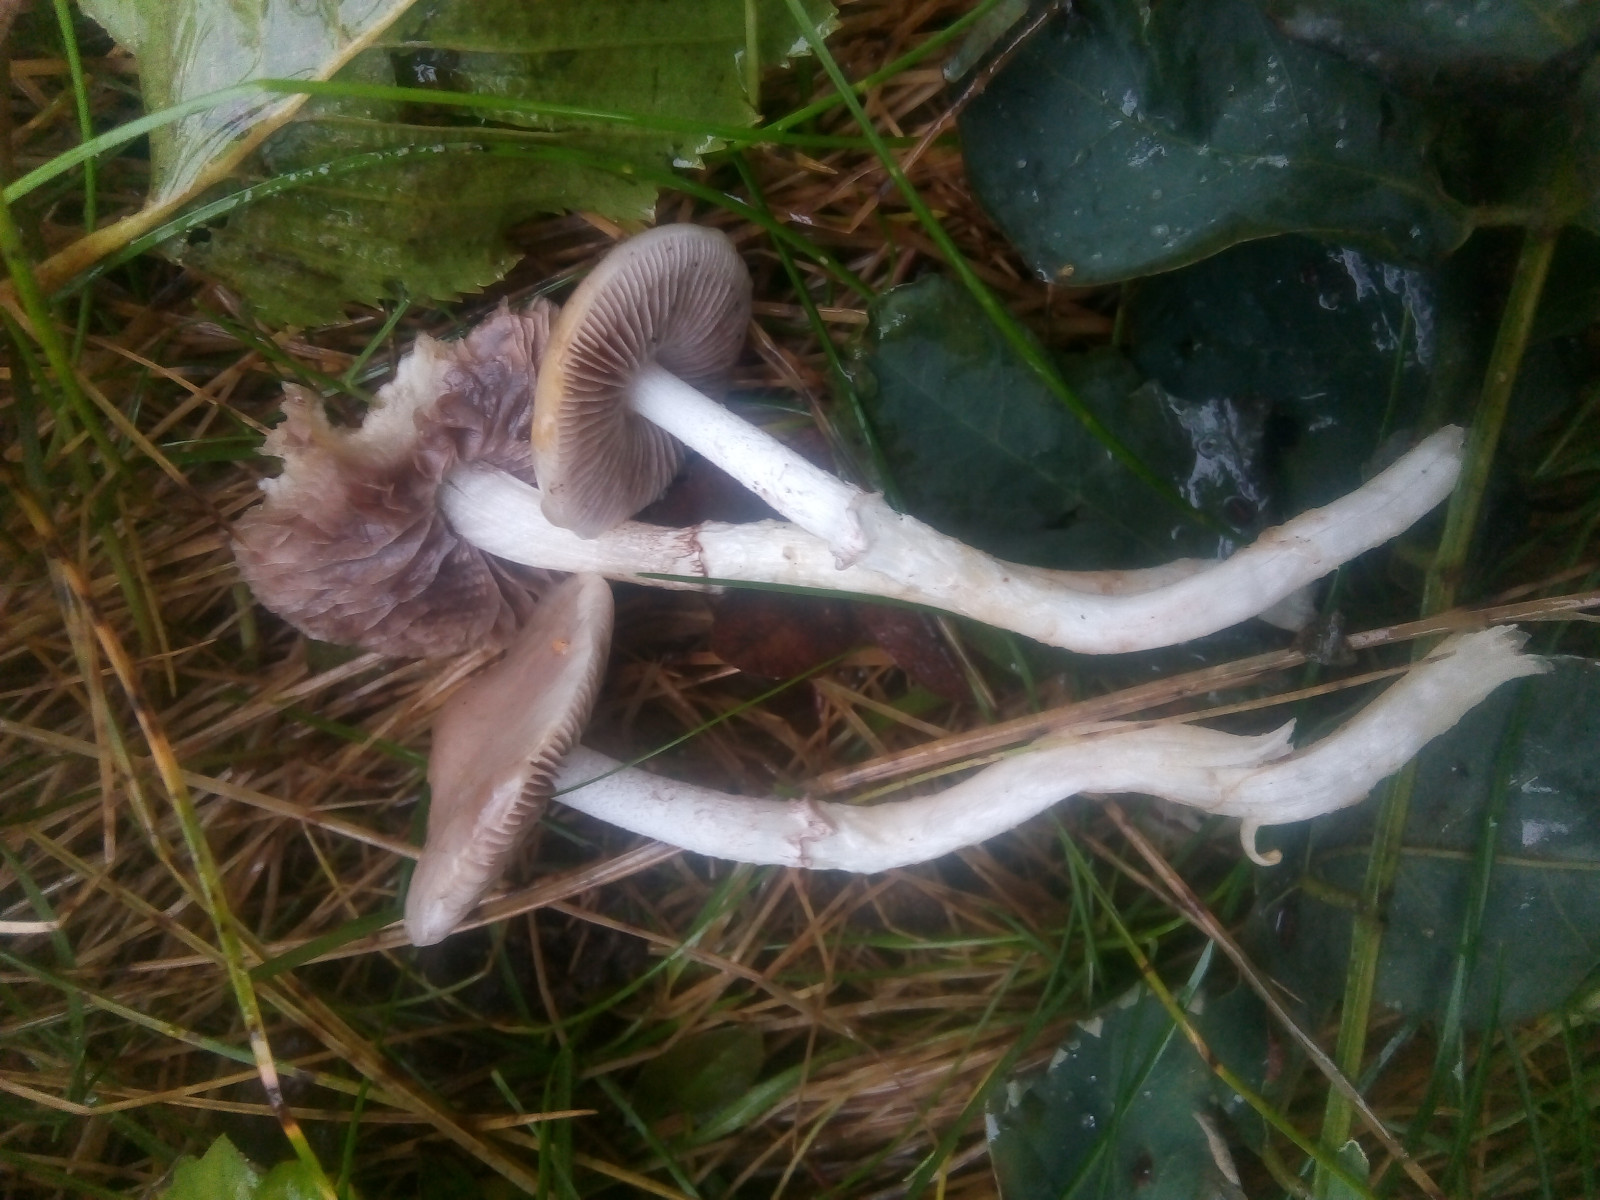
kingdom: Fungi
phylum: Basidiomycota
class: Agaricomycetes
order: Agaricales
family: Strophariaceae
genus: Stropharia
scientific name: Stropharia inuncta
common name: lillabrun bredblad
